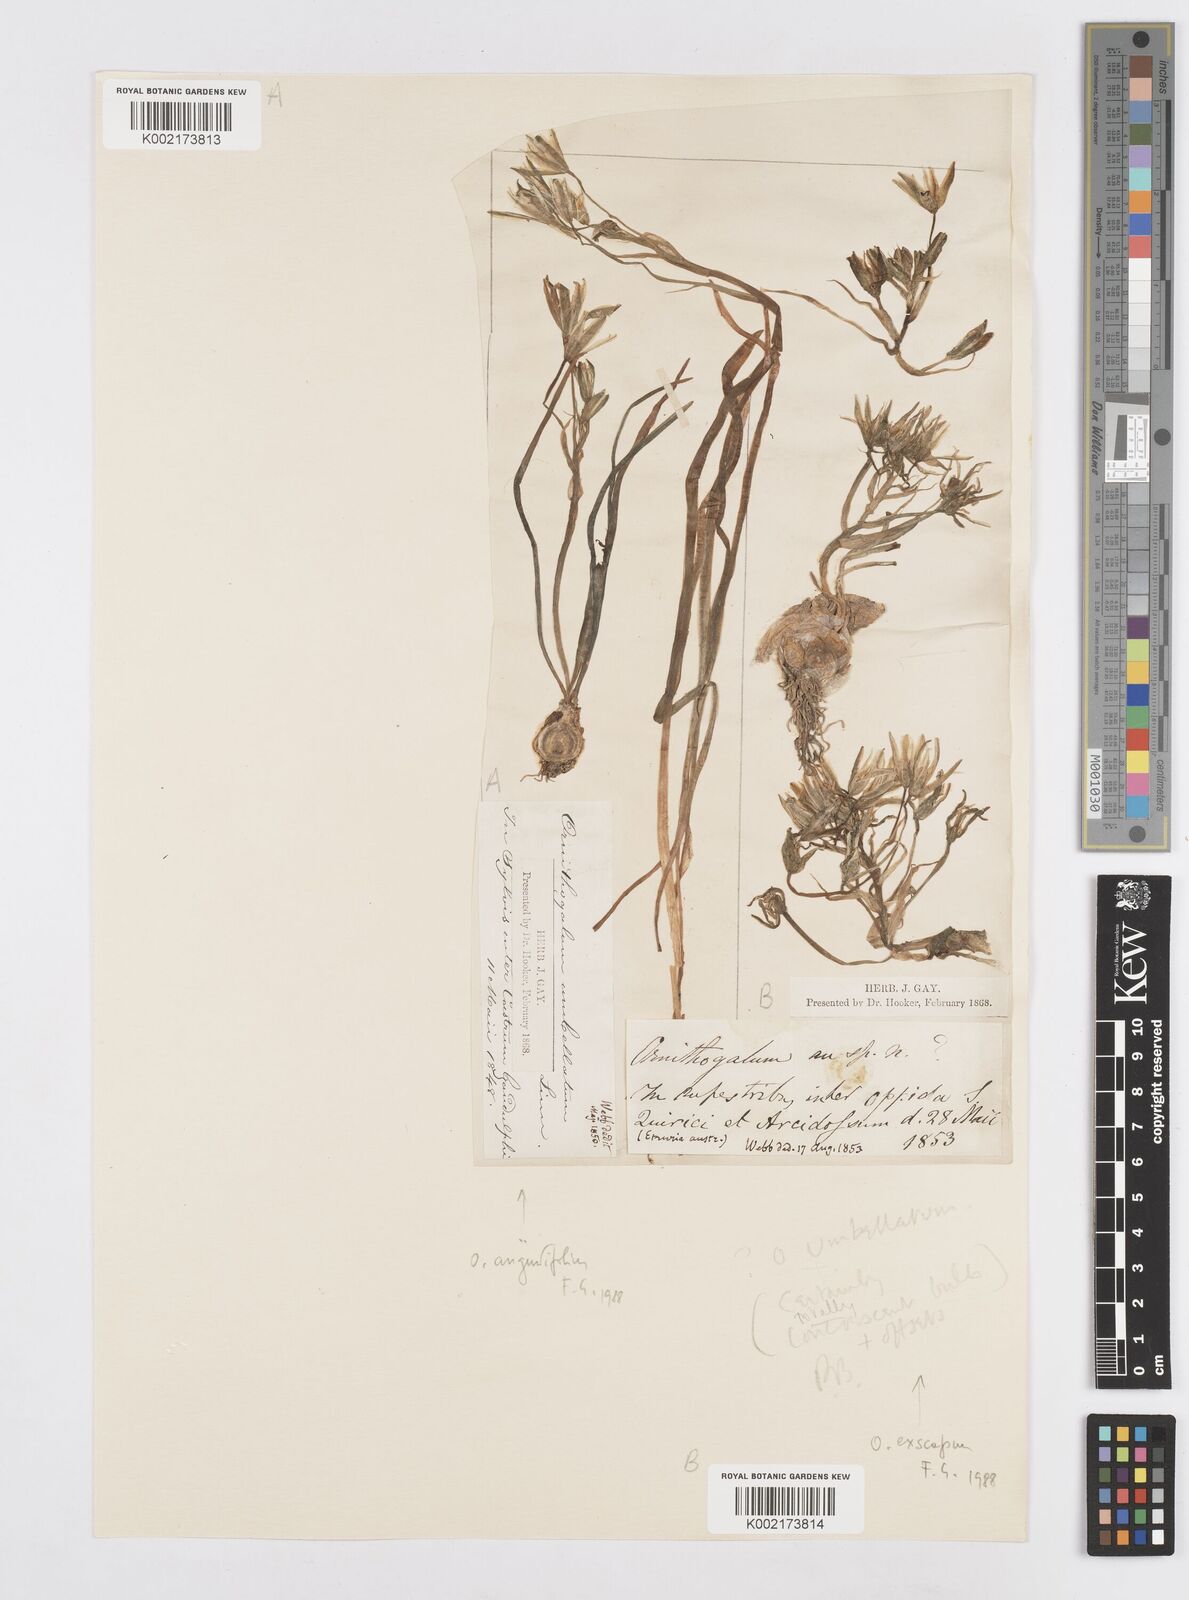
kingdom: Plantae
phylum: Tracheophyta
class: Liliopsida
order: Asparagales
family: Asparagaceae
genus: Ornithogalum
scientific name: Ornithogalum umbellatum
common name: Garden star-of-bethlehem
